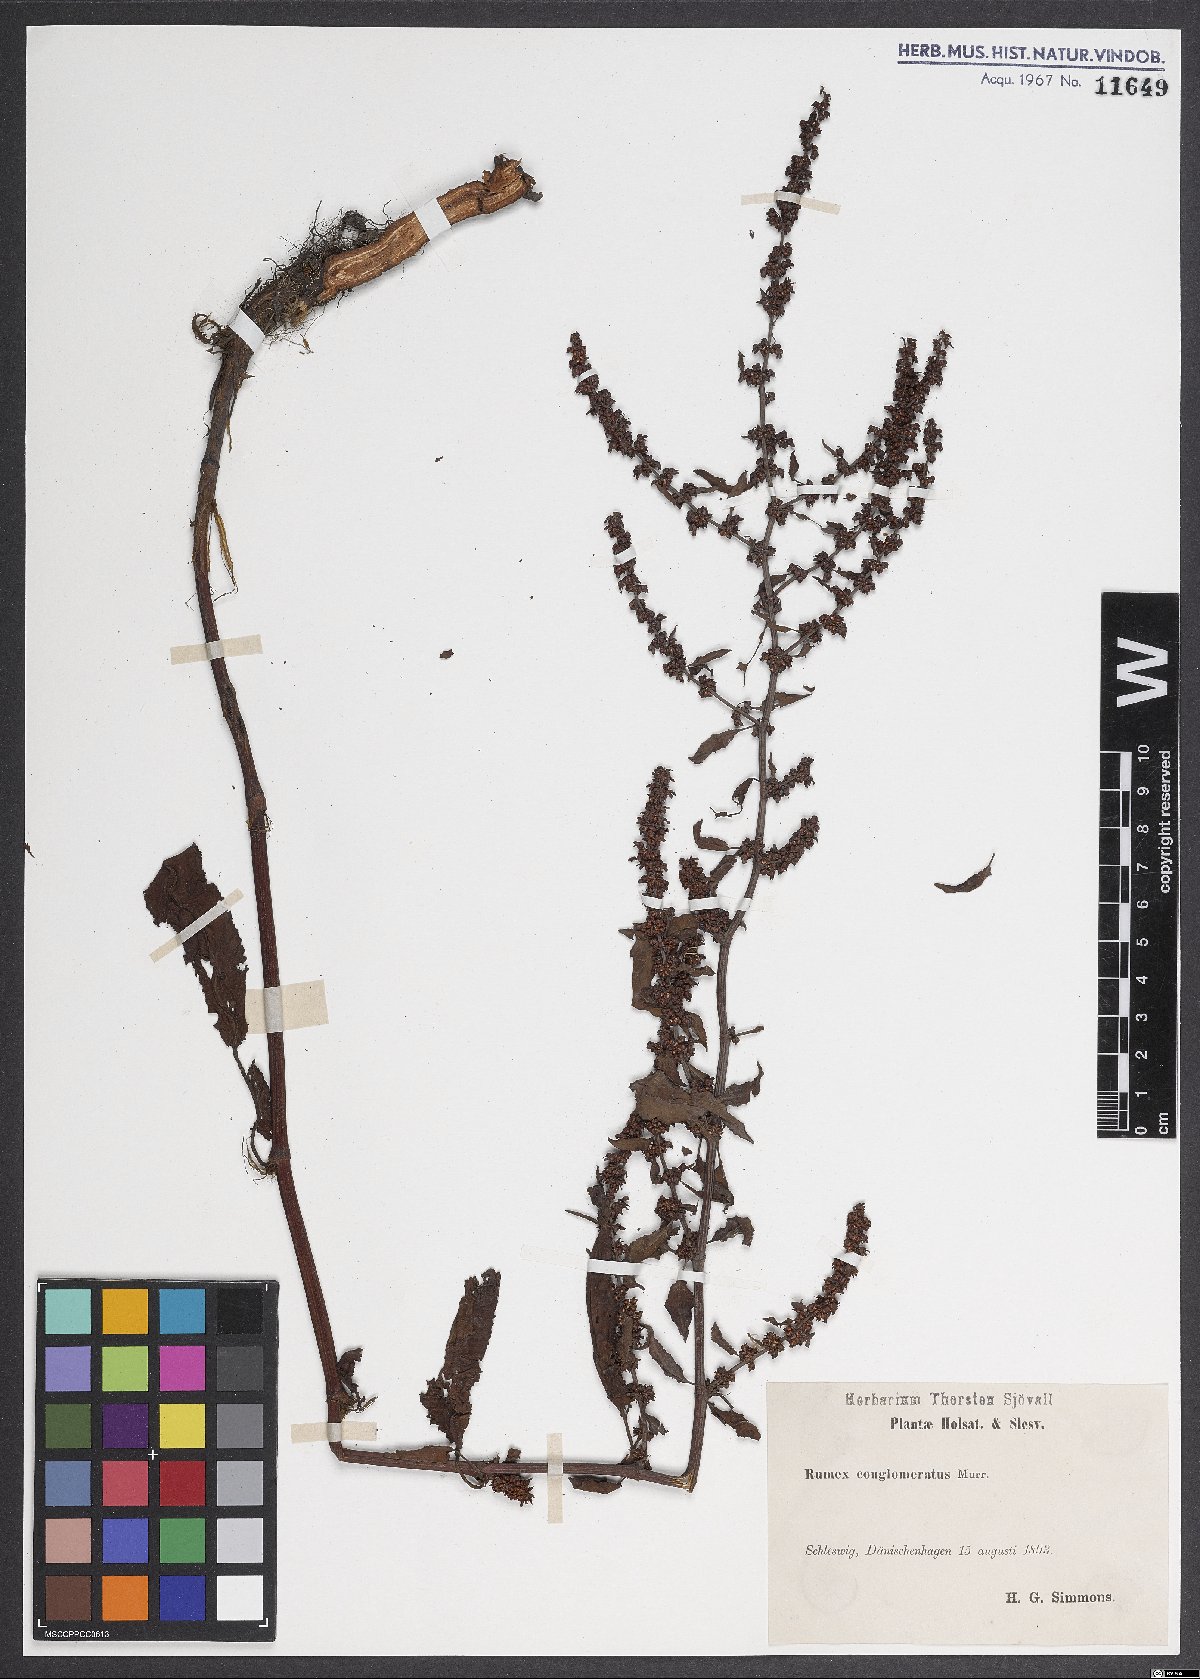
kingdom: Plantae
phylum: Tracheophyta
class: Magnoliopsida
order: Caryophyllales
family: Polygonaceae
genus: Rumex
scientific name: Rumex conglomeratus
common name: Clustered dock
